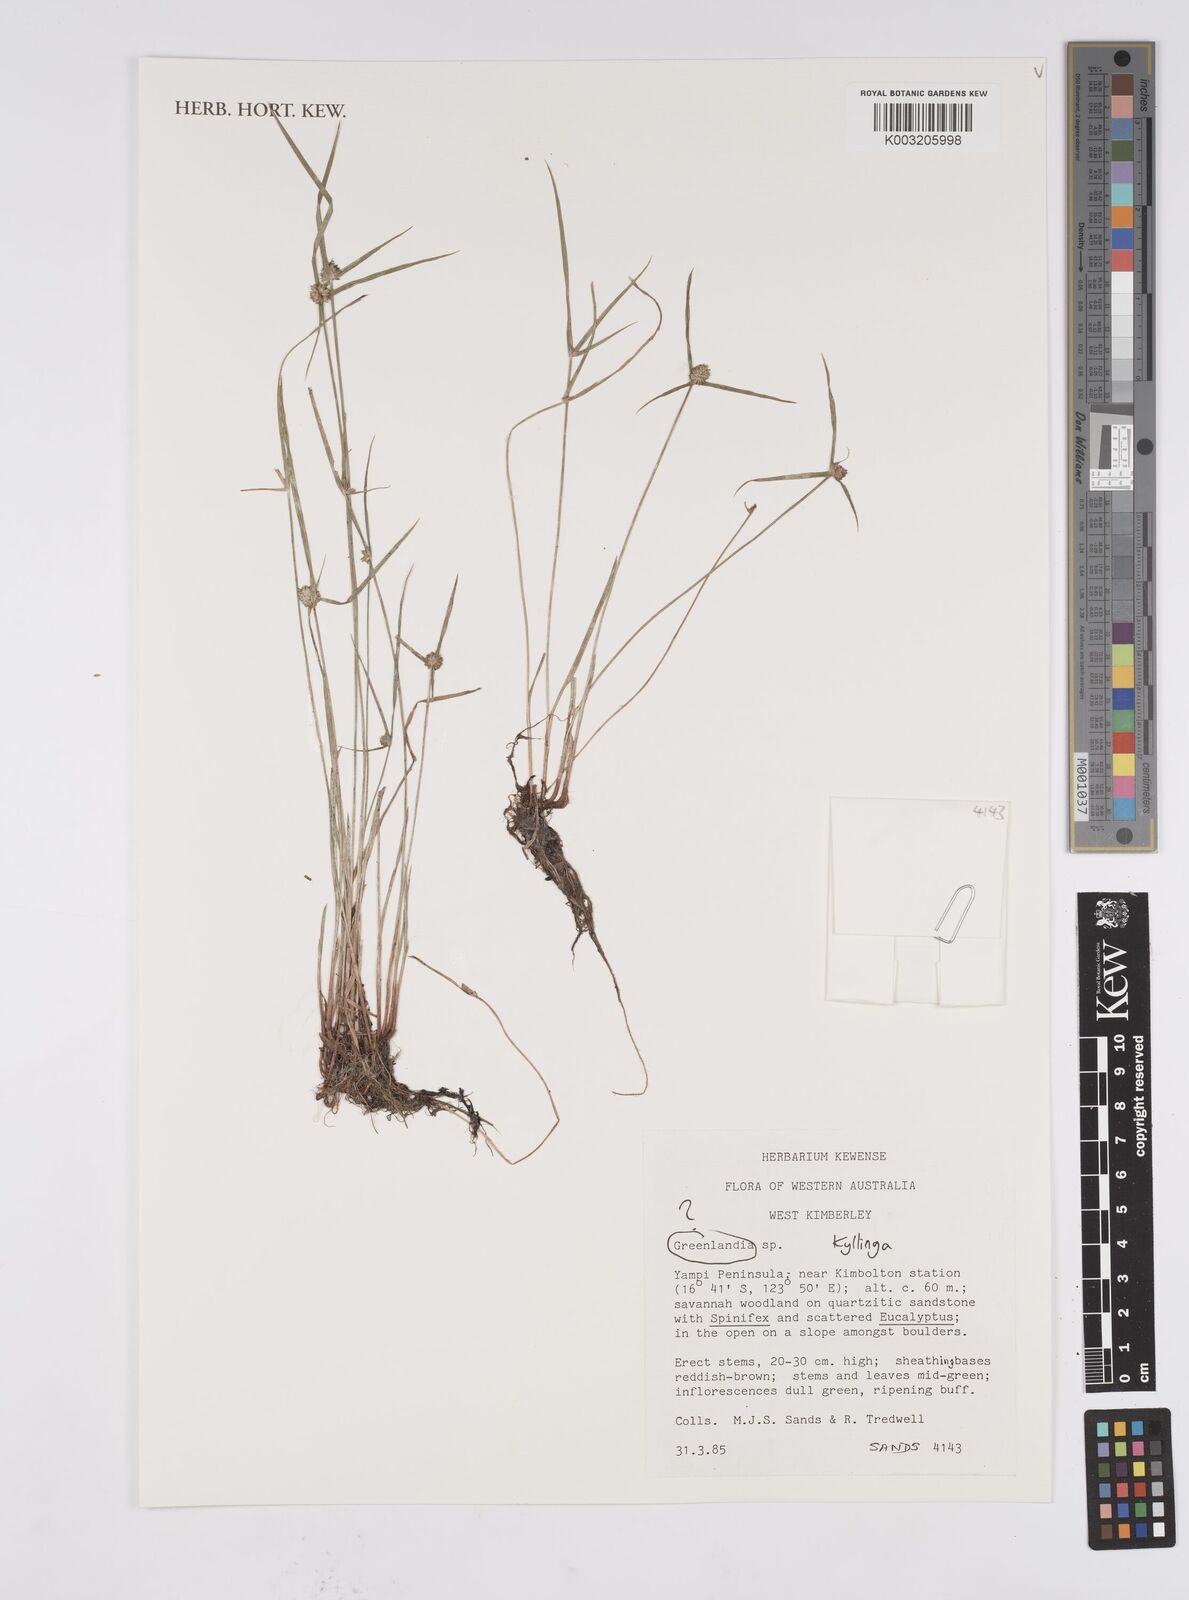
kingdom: Plantae
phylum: Tracheophyta
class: Liliopsida
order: Poales
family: Cyperaceae
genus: Cyperus
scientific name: Cyperus
